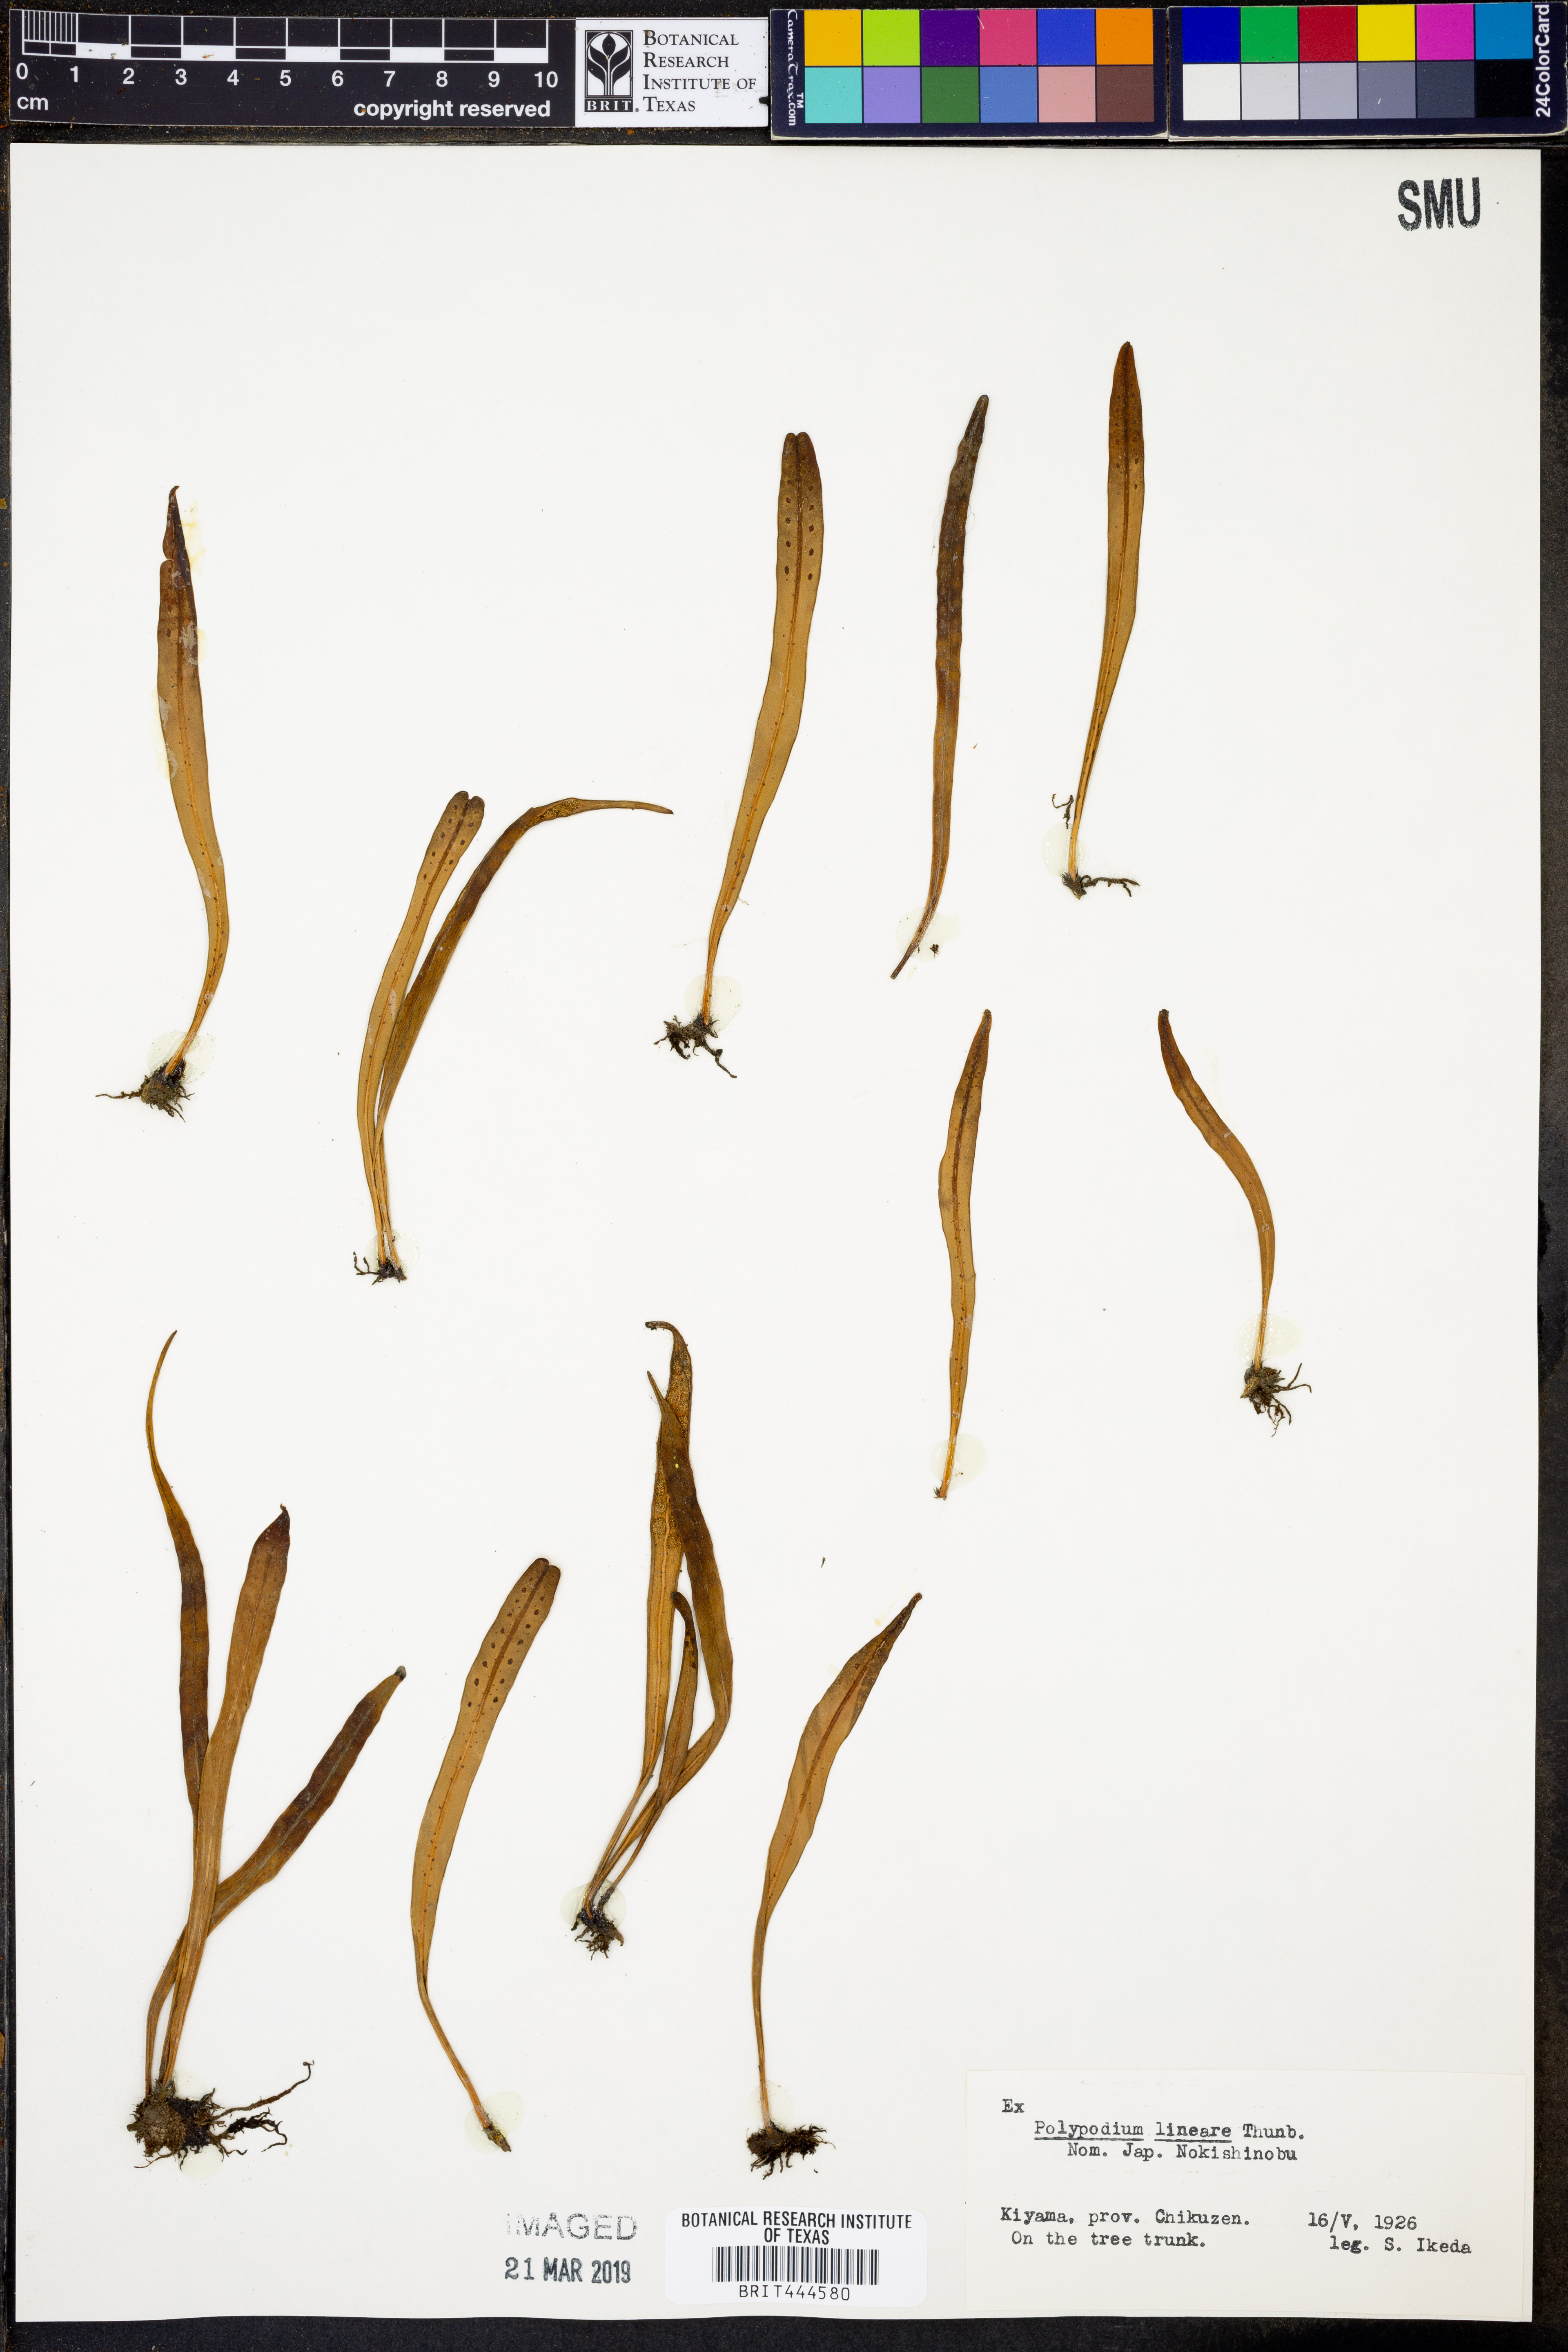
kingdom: Plantae
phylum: Tracheophyta
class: Polypodiopsida
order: Polypodiales
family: Polypodiaceae
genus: Lepisorus
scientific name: Lepisorus thunbergianus
